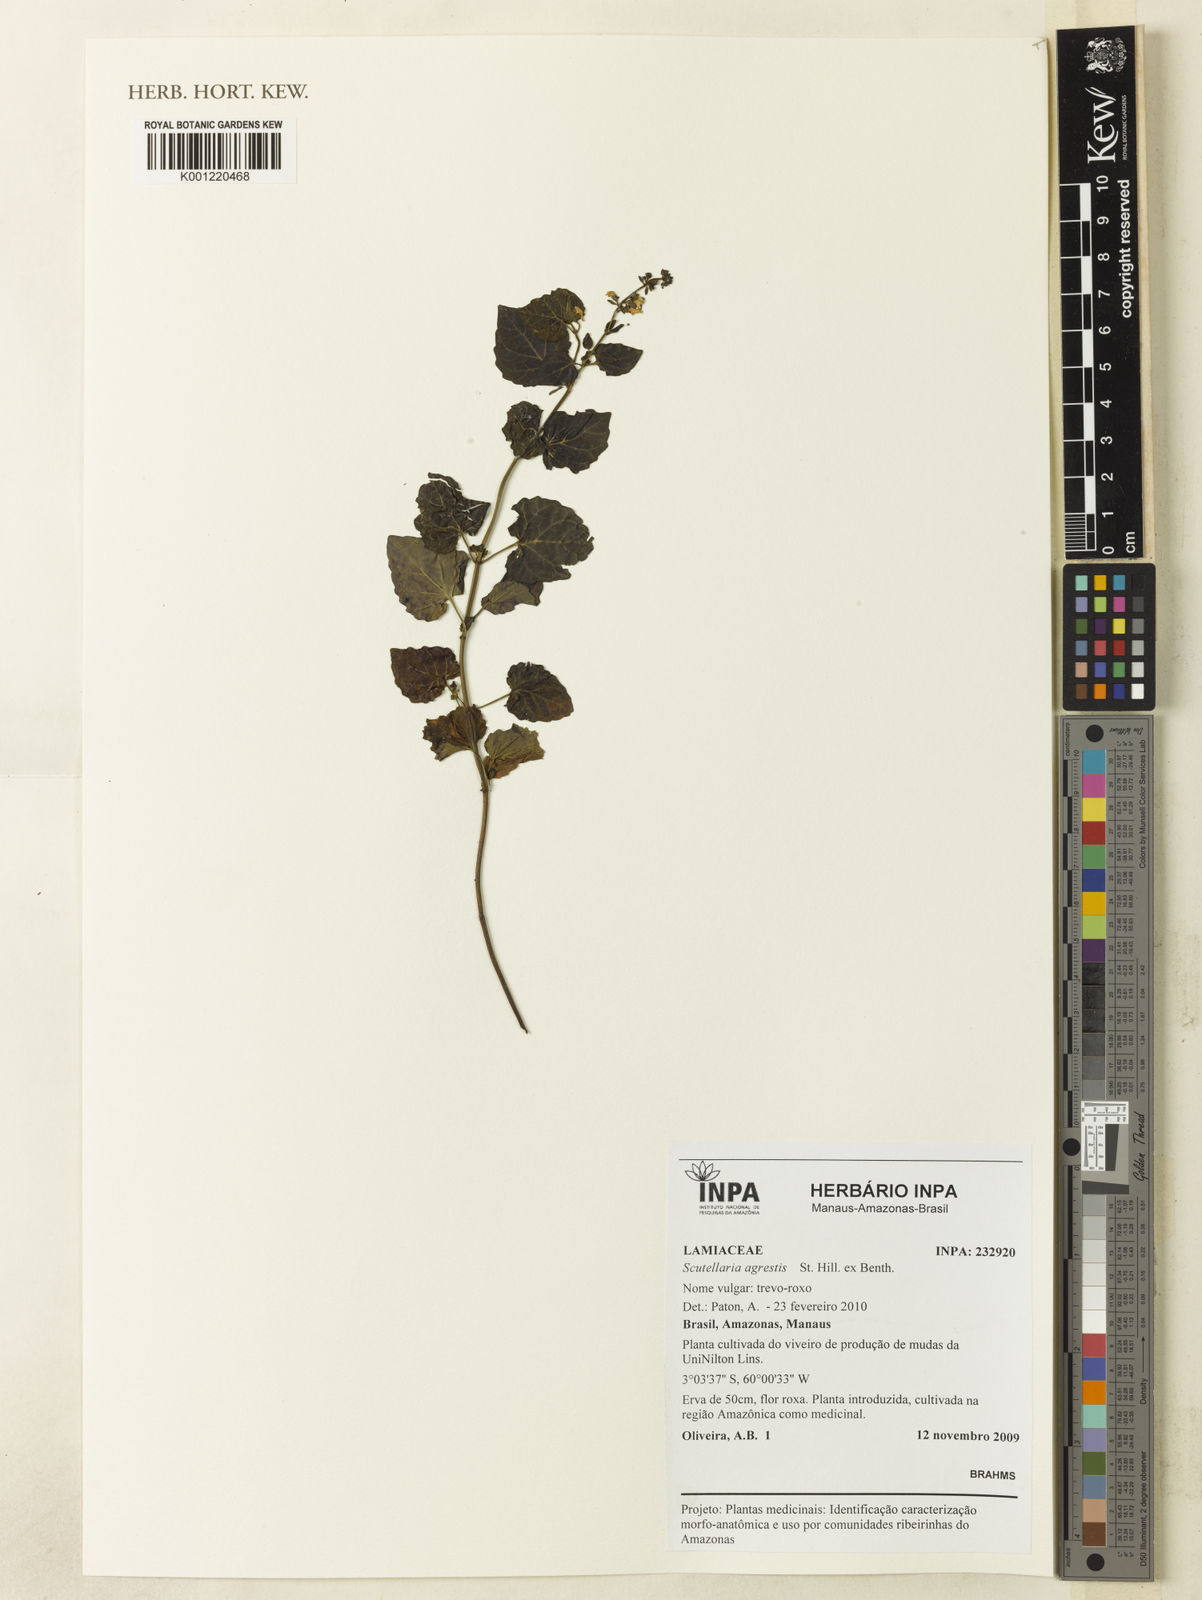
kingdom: Plantae
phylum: Tracheophyta
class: Magnoliopsida
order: Lamiales
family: Lamiaceae
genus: Scutellaria
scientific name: Scutellaria agrestis
